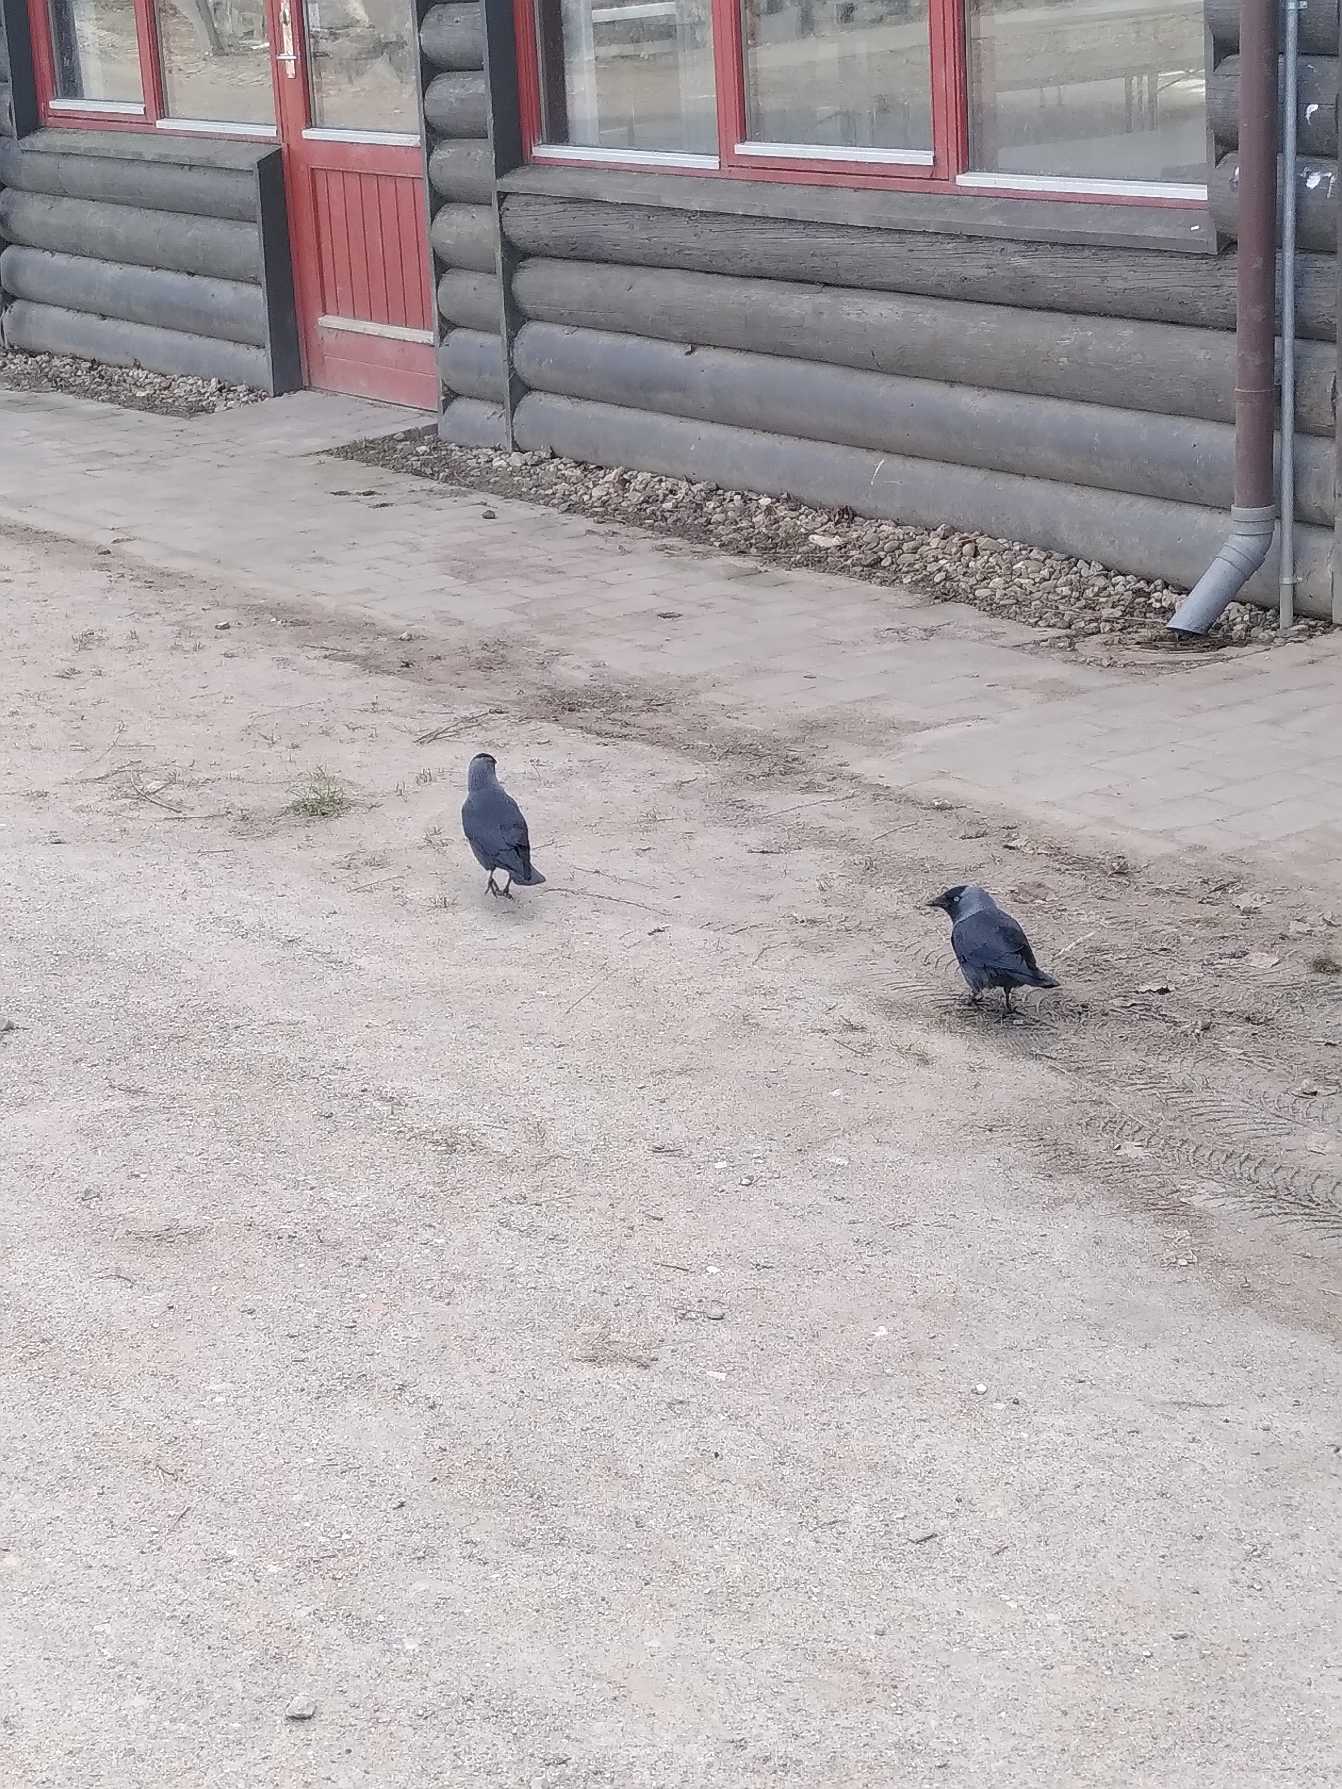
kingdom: Animalia
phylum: Chordata
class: Aves
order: Passeriformes
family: Corvidae
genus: Coloeus
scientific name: Coloeus monedula
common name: Allike
